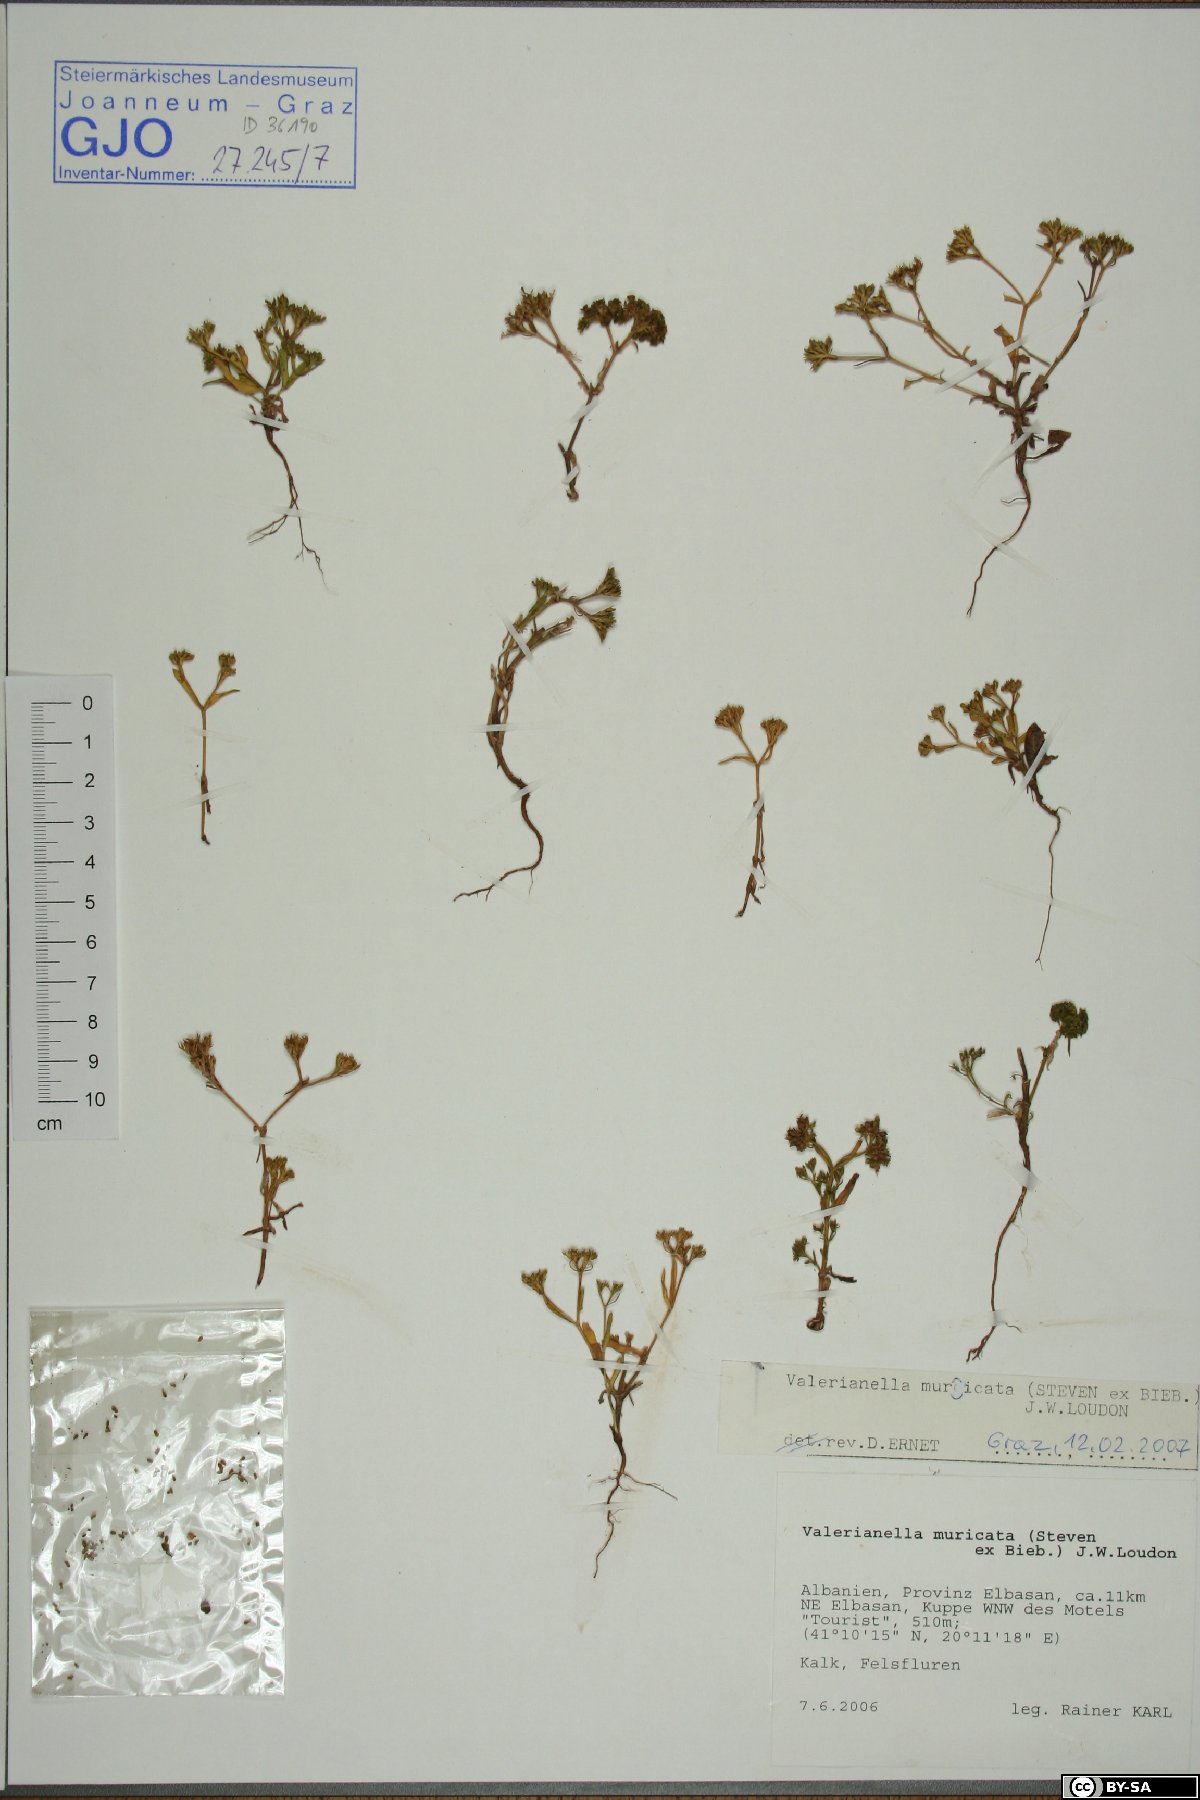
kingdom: Plantae
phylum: Tracheophyta
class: Magnoliopsida
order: Dipsacales
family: Caprifoliaceae
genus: Valerianella
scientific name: Valerianella eriocarpa
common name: Hairy-fruited cornsalad
